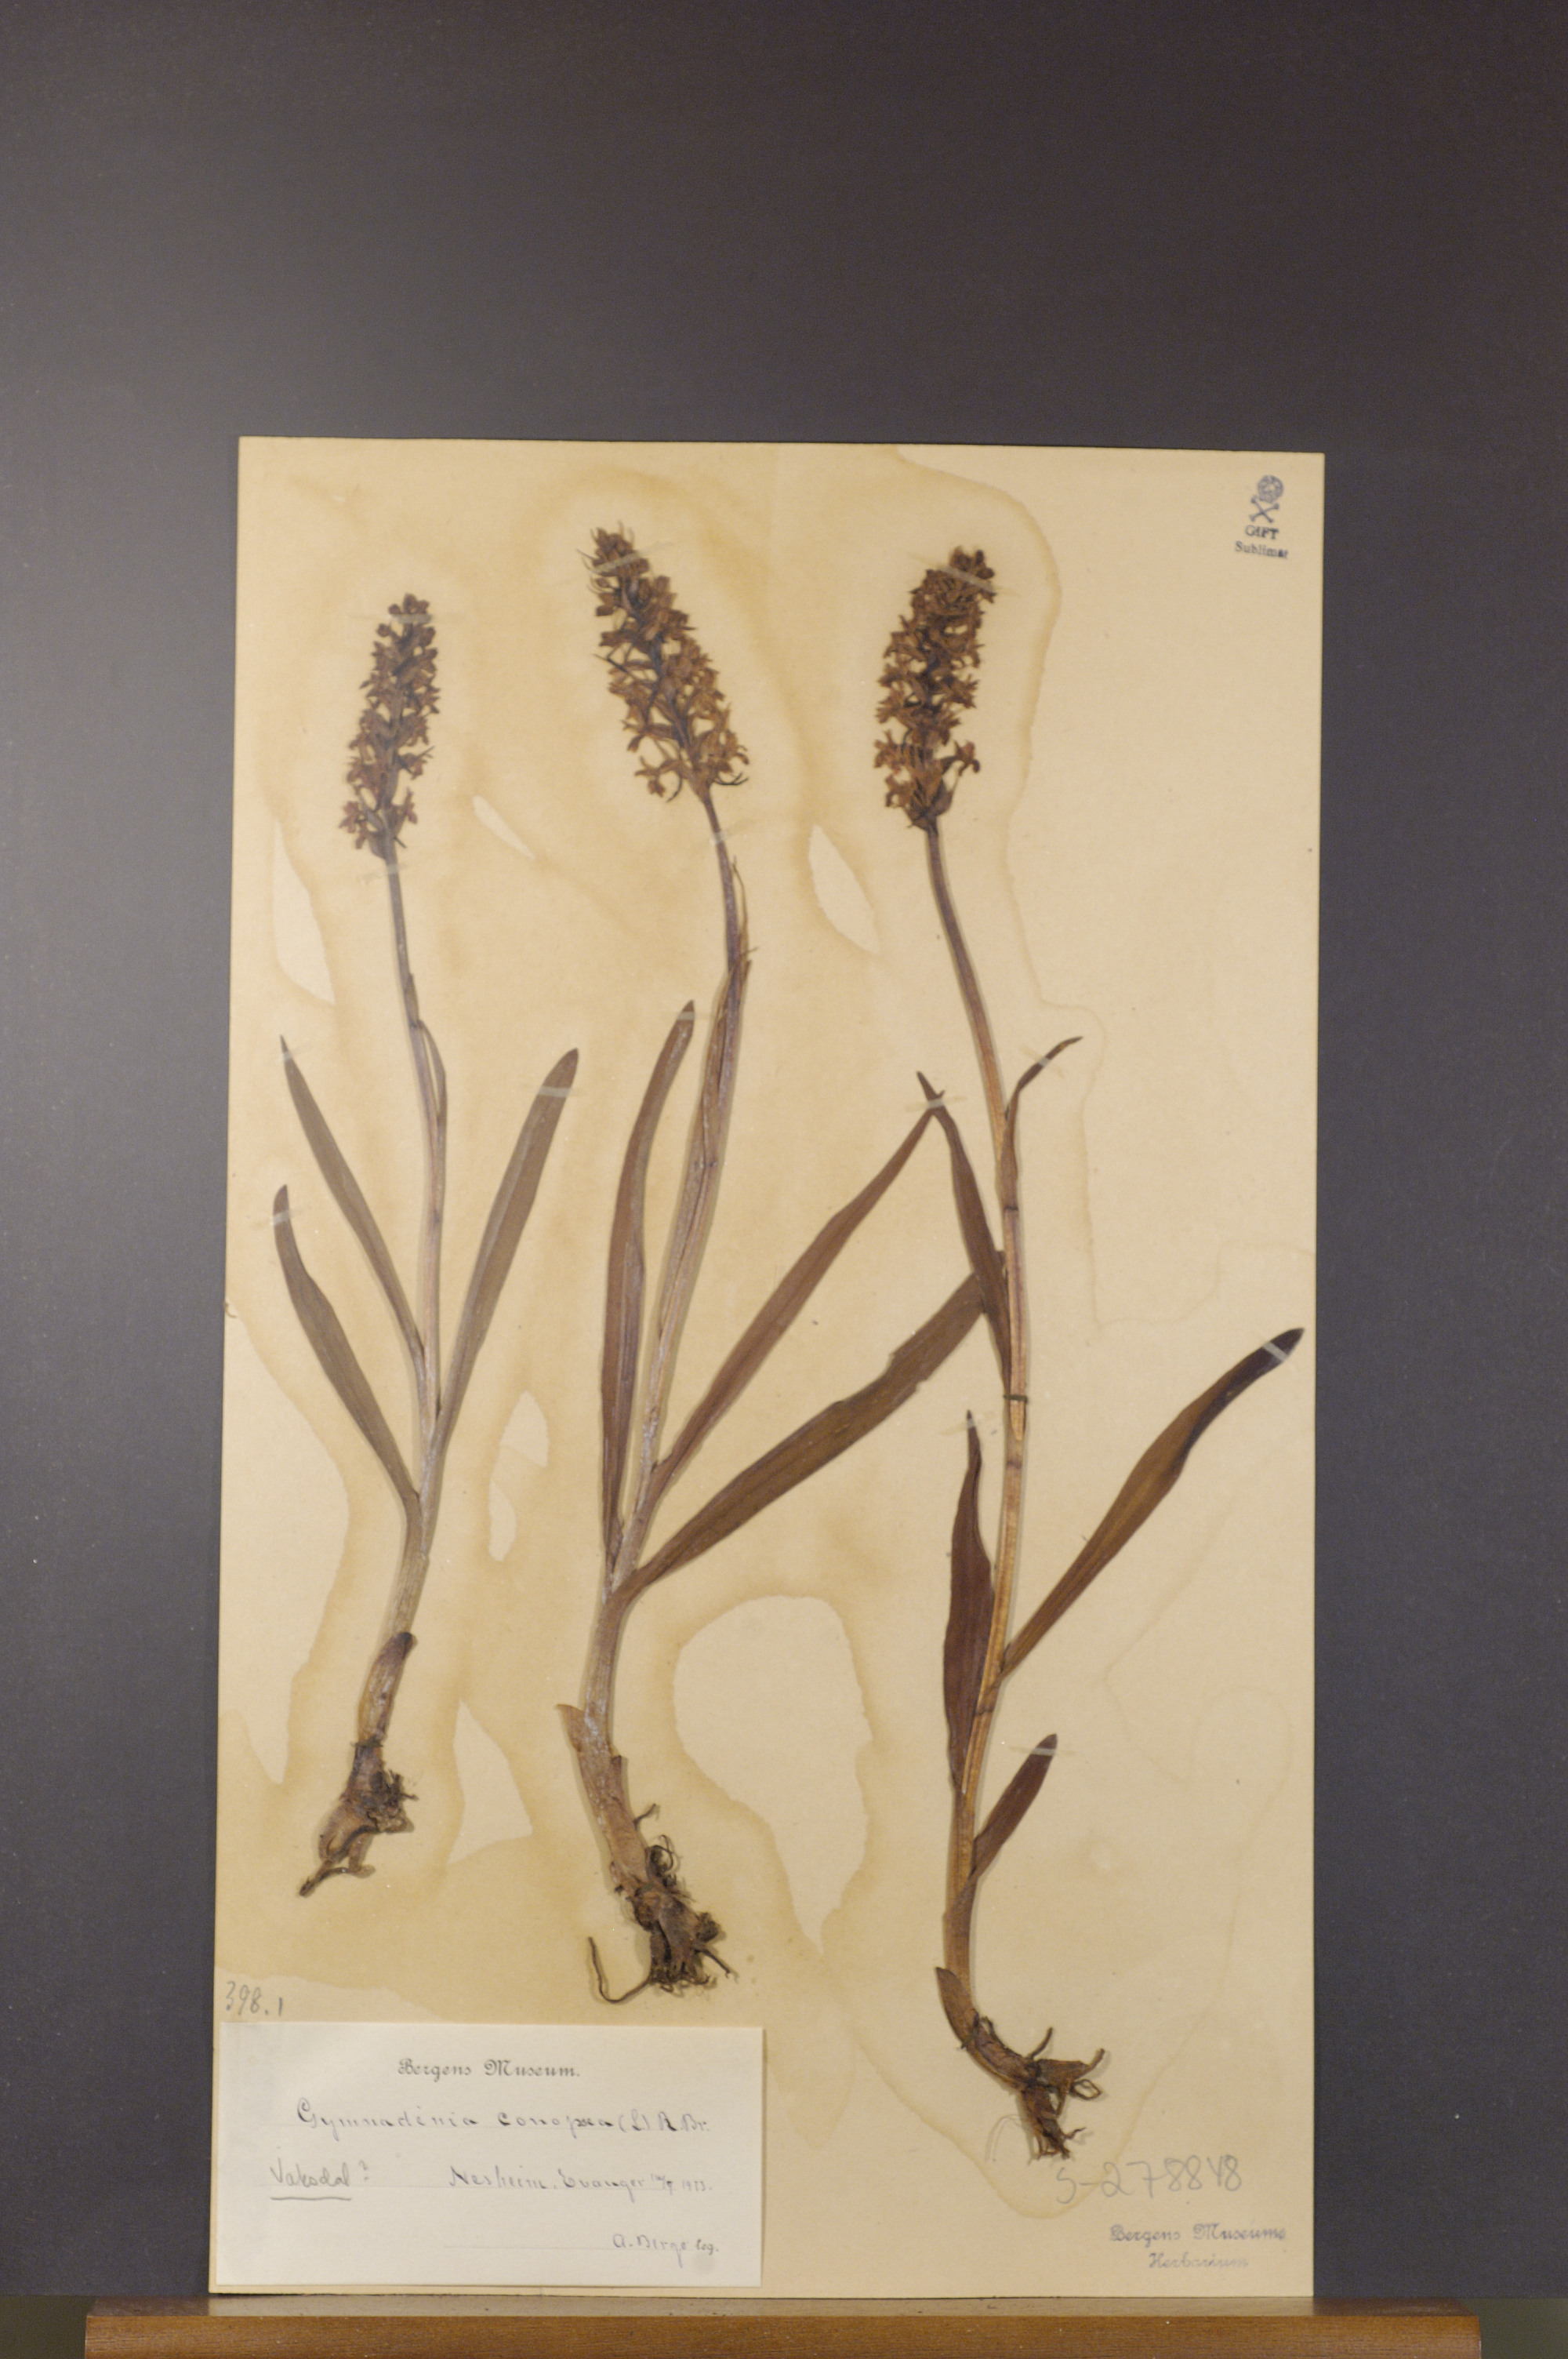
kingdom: Plantae
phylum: Tracheophyta
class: Liliopsida
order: Asparagales
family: Orchidaceae
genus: Gymnadenia
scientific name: Gymnadenia conopsea
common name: Fragrant orchid
